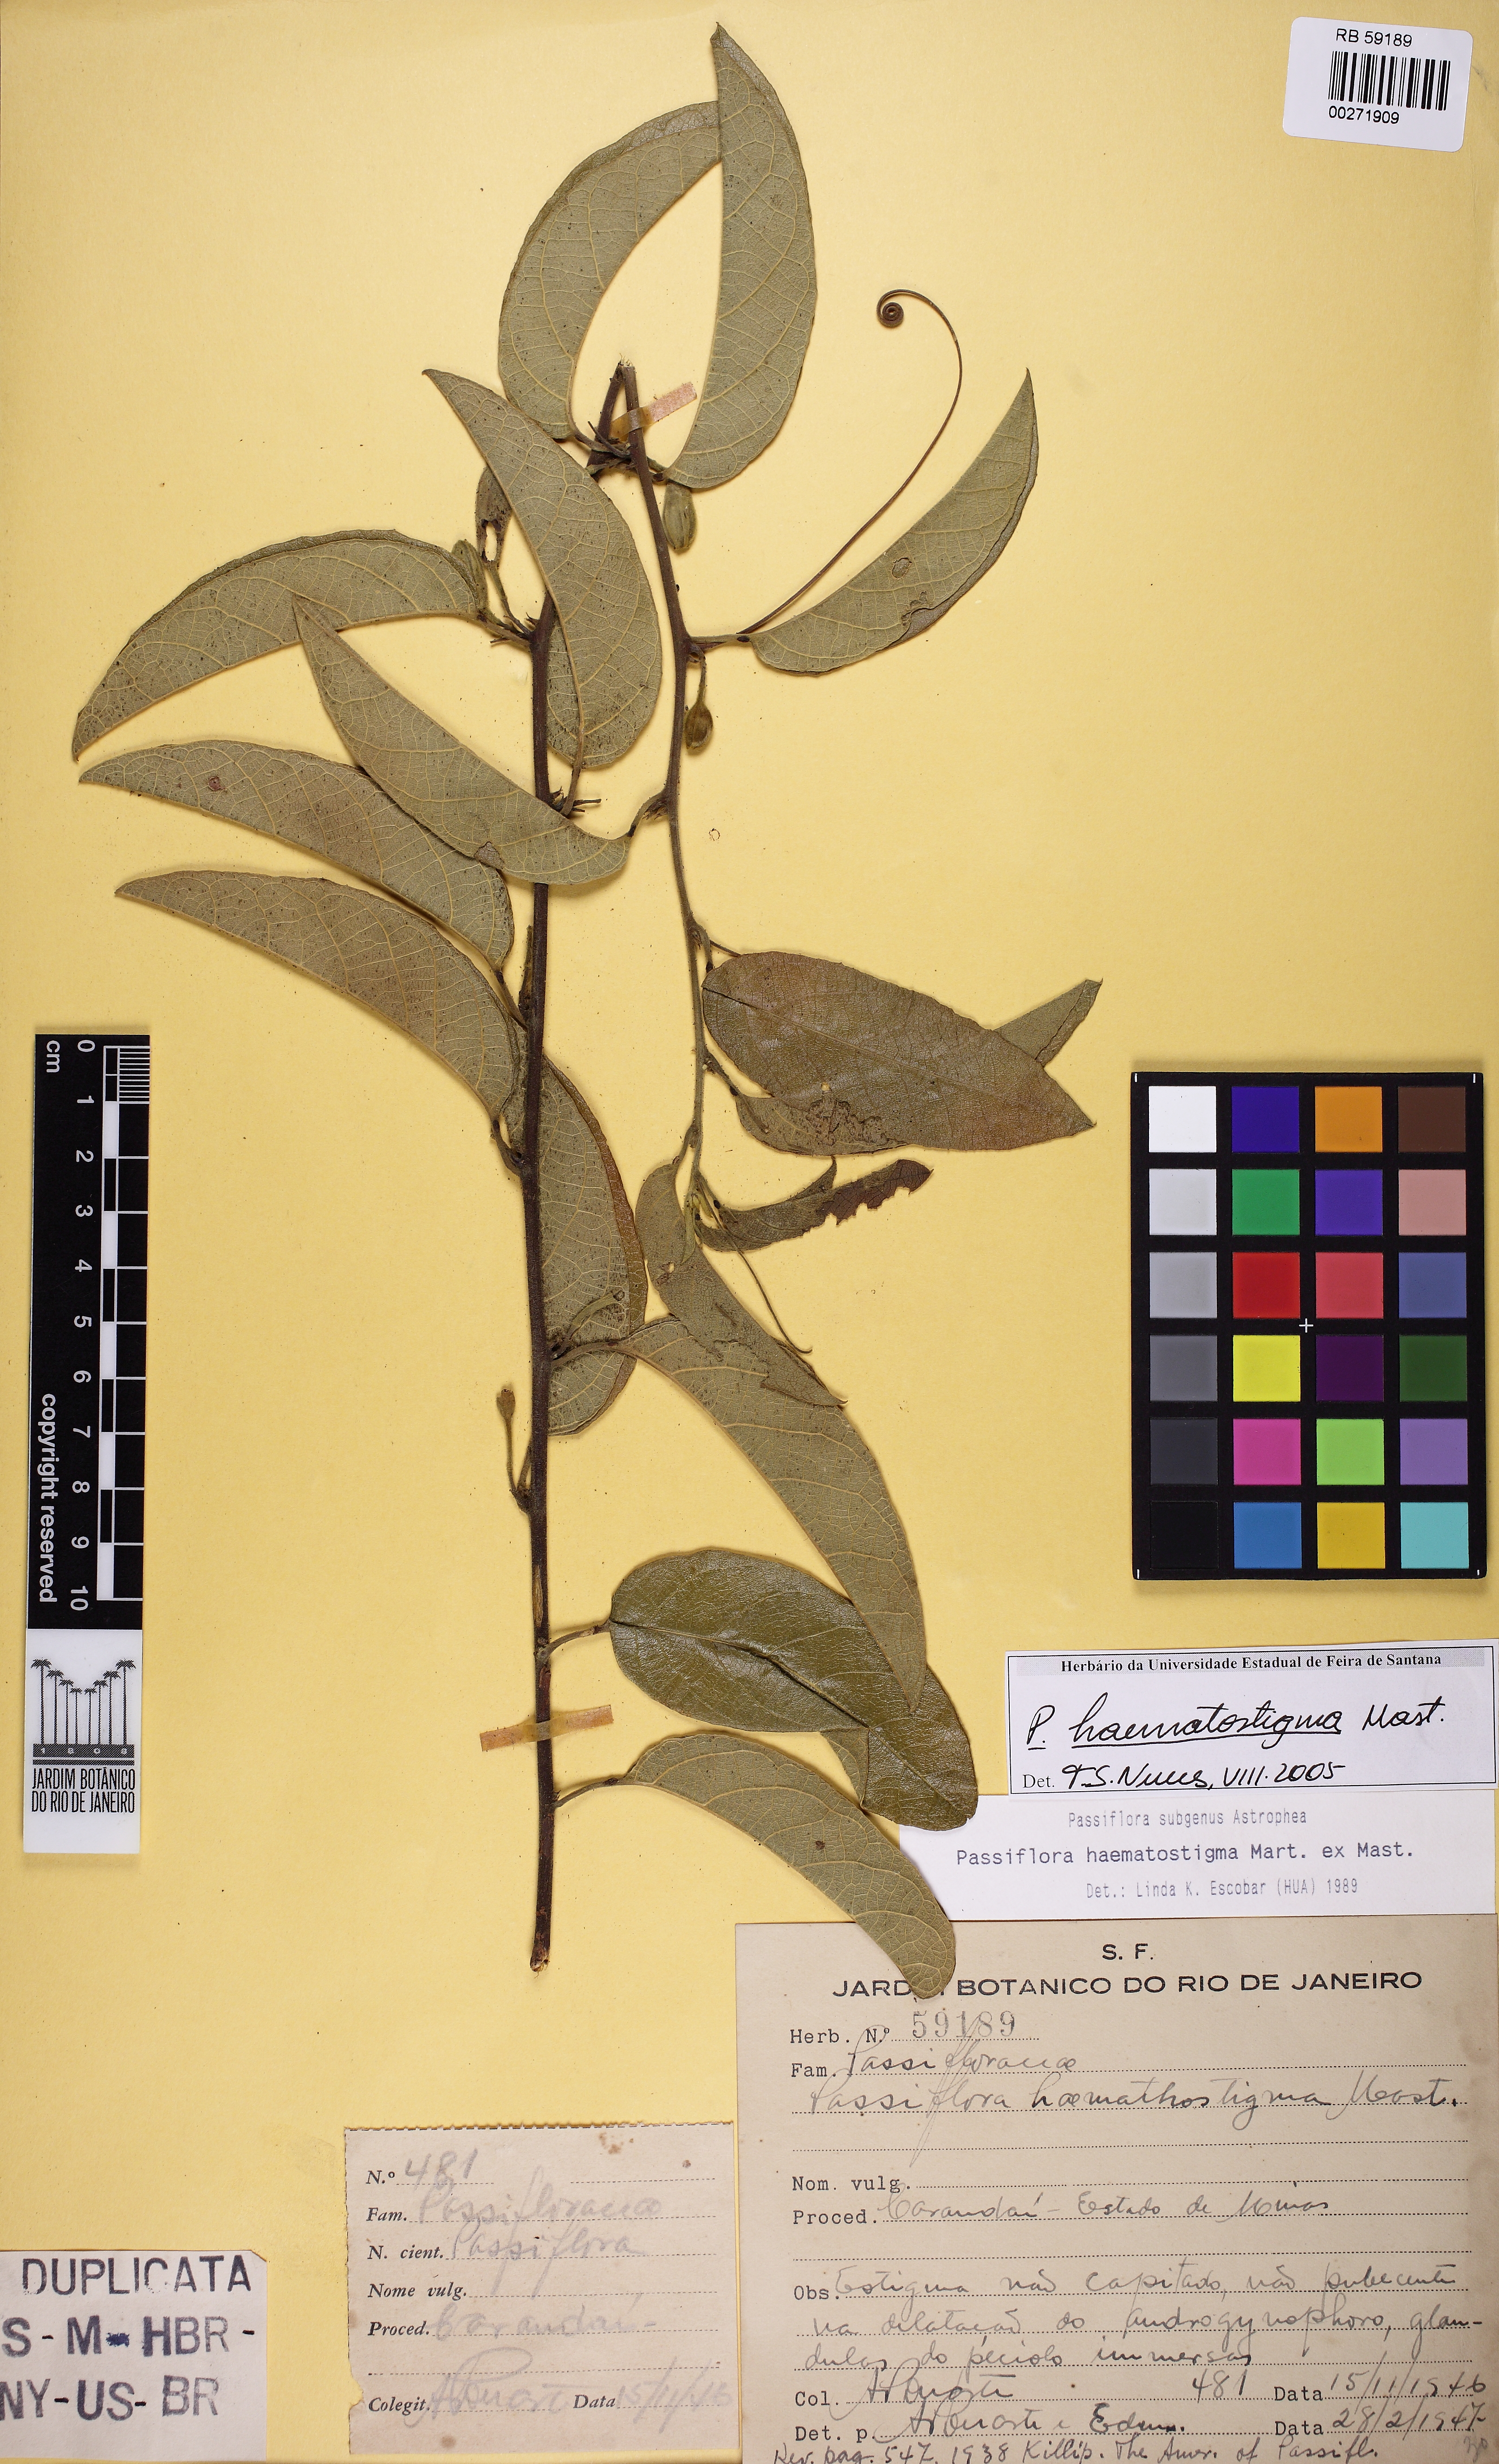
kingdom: Plantae
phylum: Tracheophyta
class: Magnoliopsida
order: Malpighiales
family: Passifloraceae
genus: Passiflora
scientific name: Passiflora haematostigma
